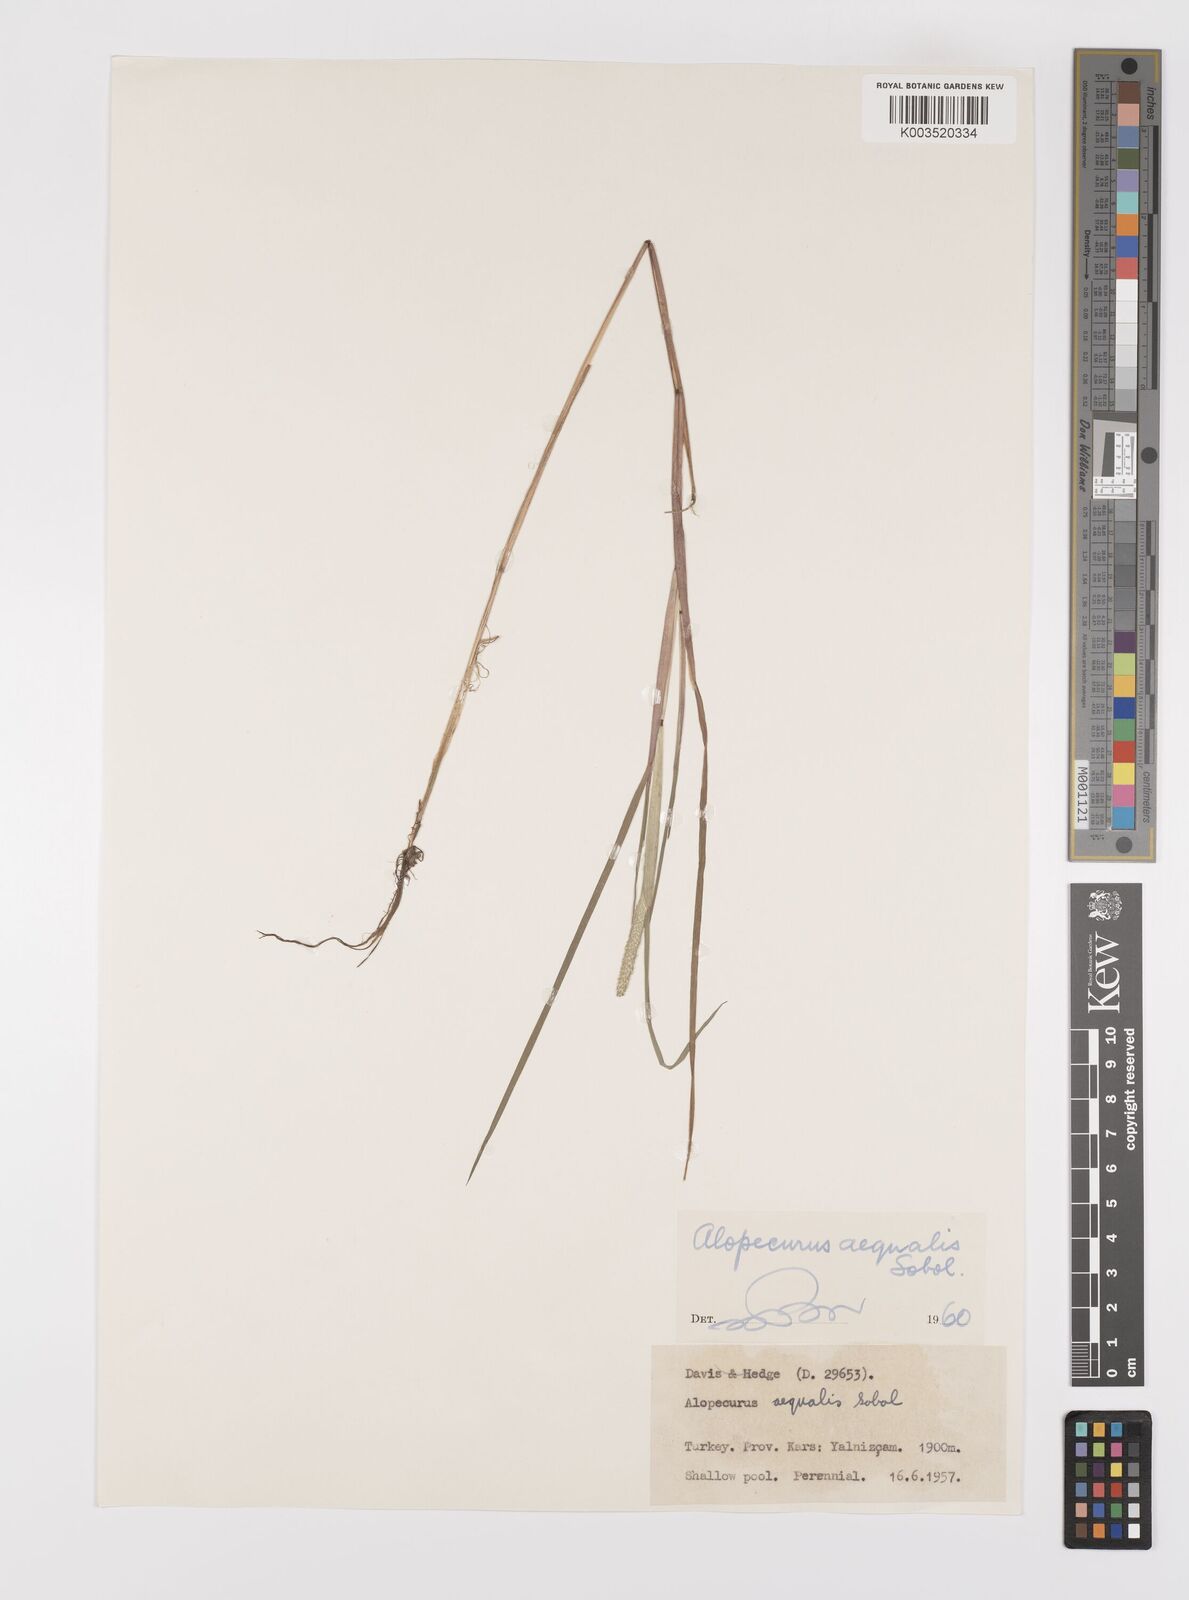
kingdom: Plantae
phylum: Tracheophyta
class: Liliopsida
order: Poales
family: Poaceae
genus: Alopecurus
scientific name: Alopecurus aequalis
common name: Orange foxtail
